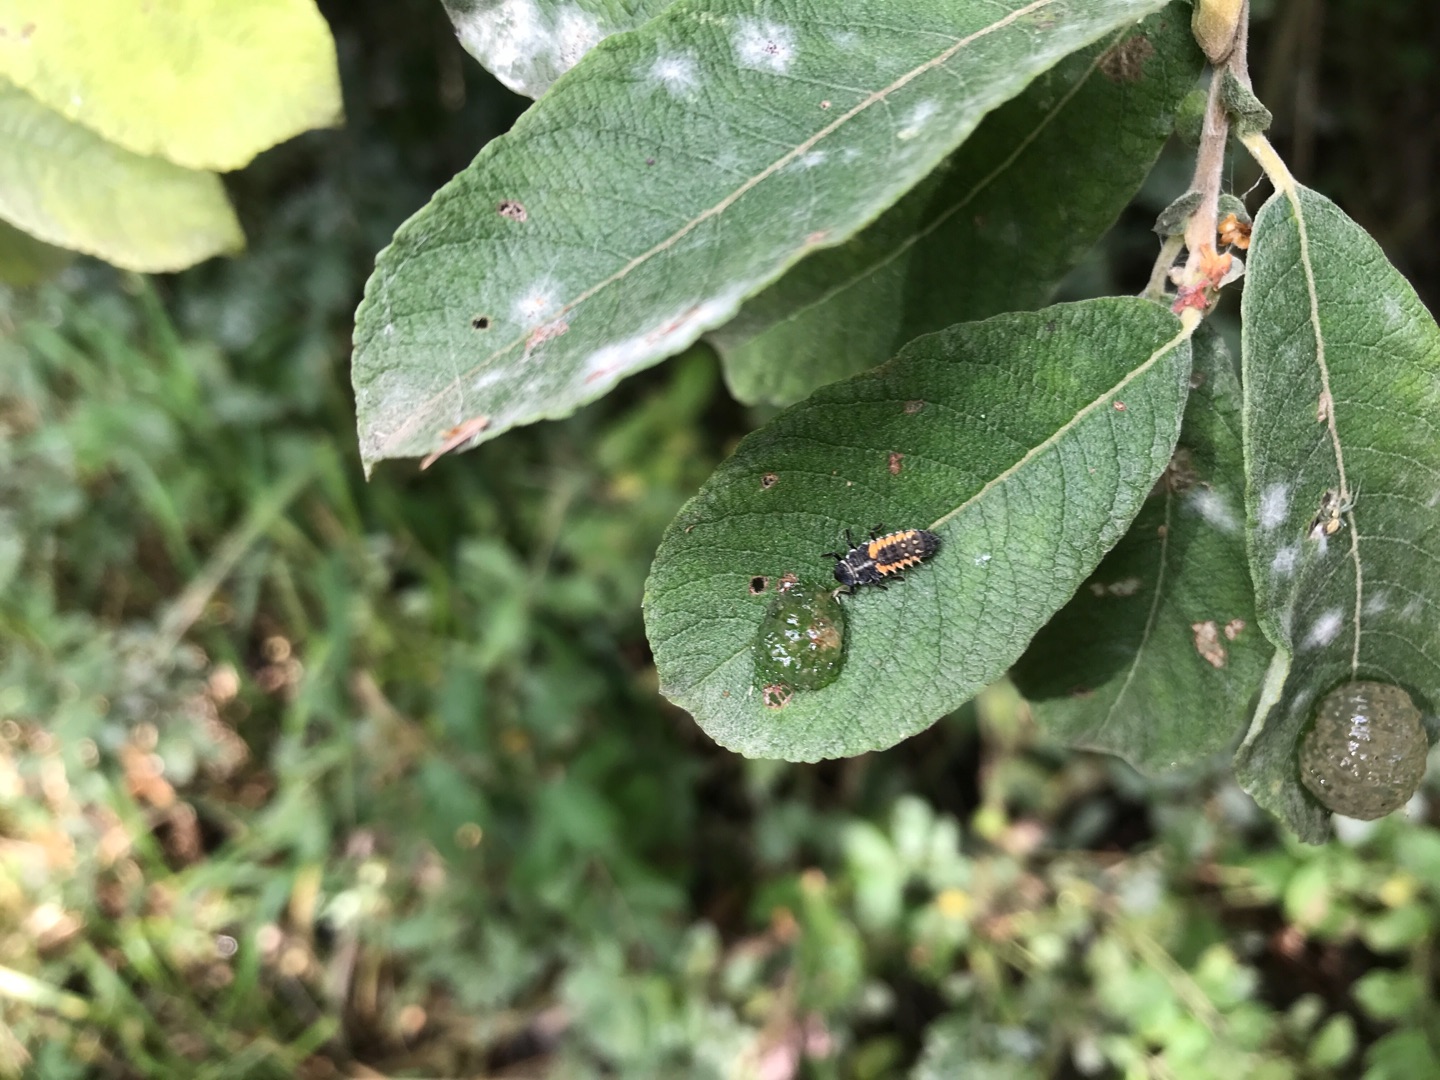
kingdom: Animalia
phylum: Arthropoda
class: Insecta
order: Coleoptera
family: Coccinellidae
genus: Harmonia
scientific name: Harmonia axyridis
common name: Harlekinmariehøne
